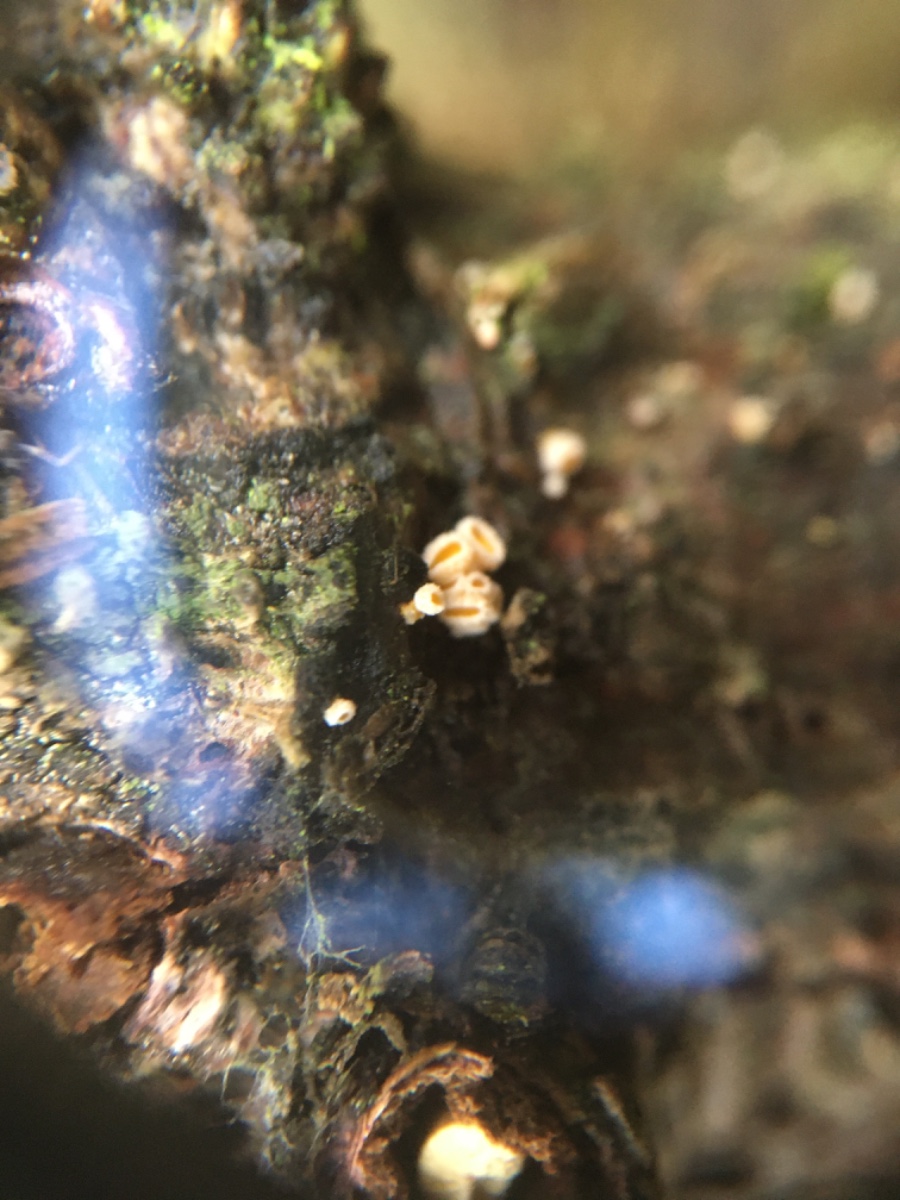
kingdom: Fungi
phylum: Ascomycota
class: Leotiomycetes
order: Helotiales
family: Lachnaceae
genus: Lachnellula
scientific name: Lachnellula resinaria
